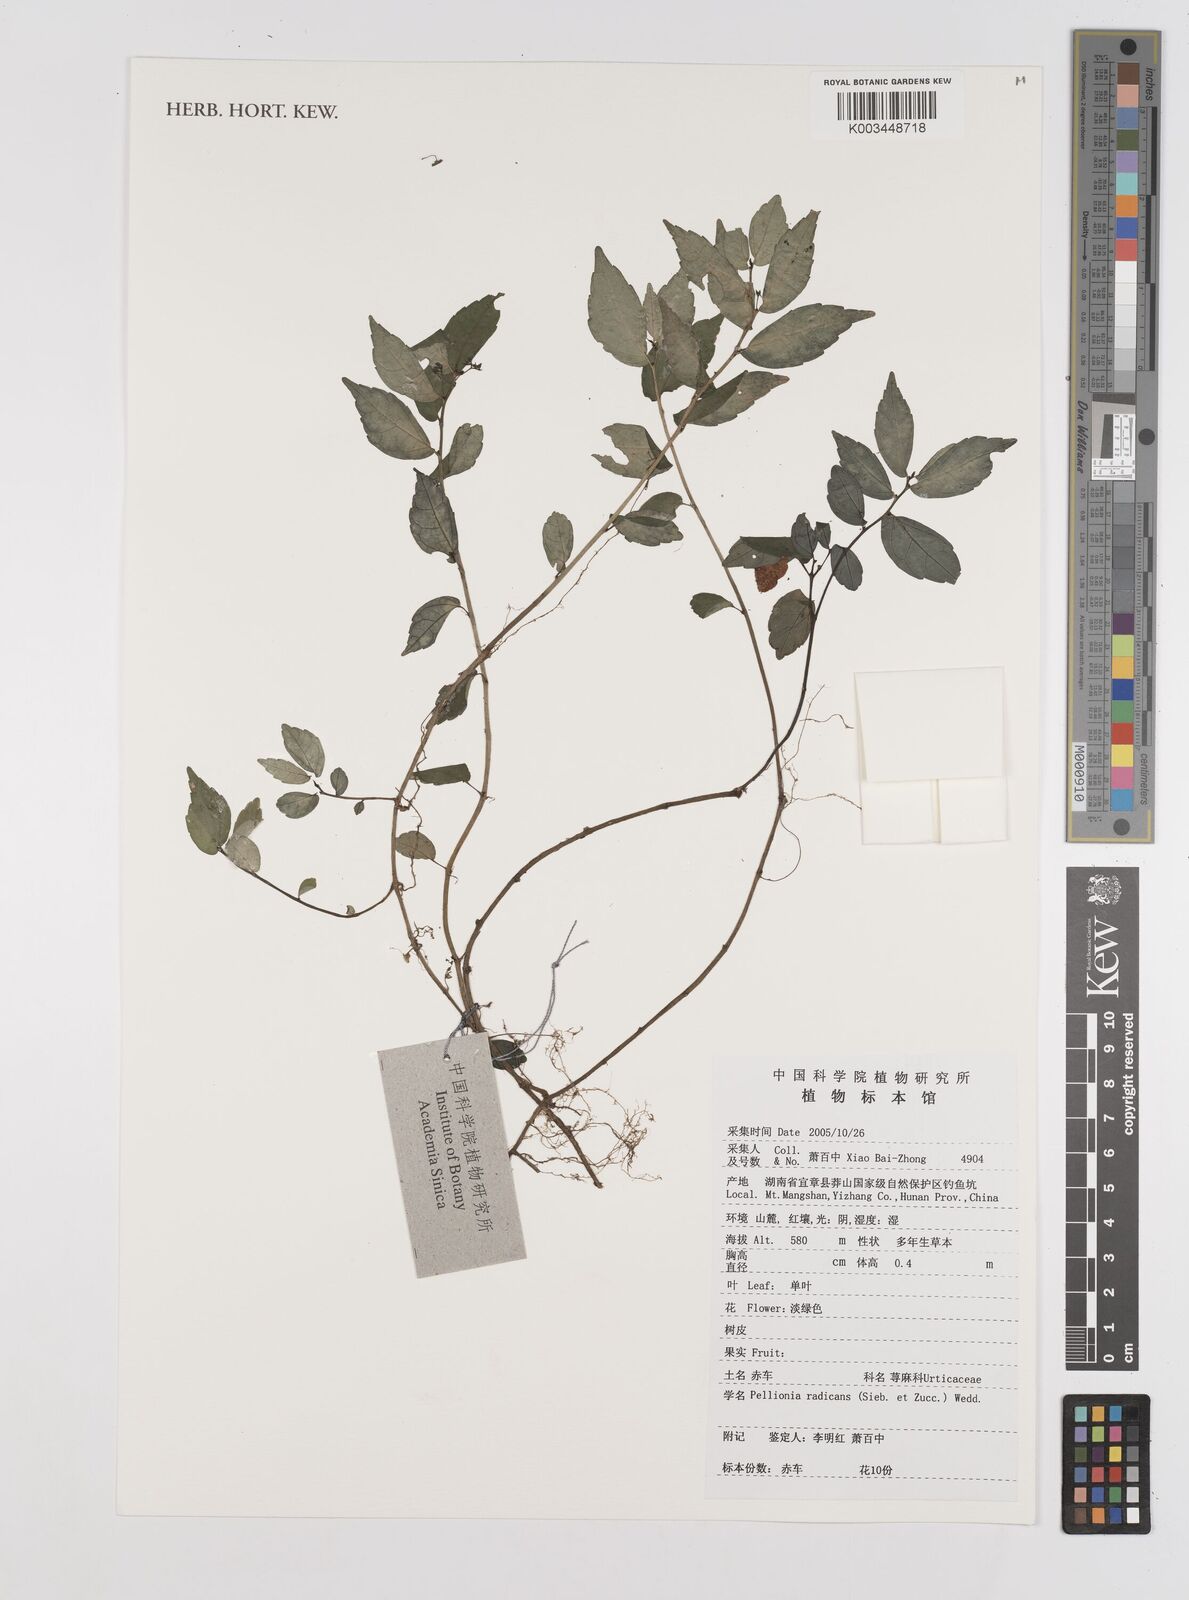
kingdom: Plantae
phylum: Tracheophyta
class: Magnoliopsida
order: Rosales
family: Urticaceae
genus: Elatostema
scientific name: Elatostema radicans
